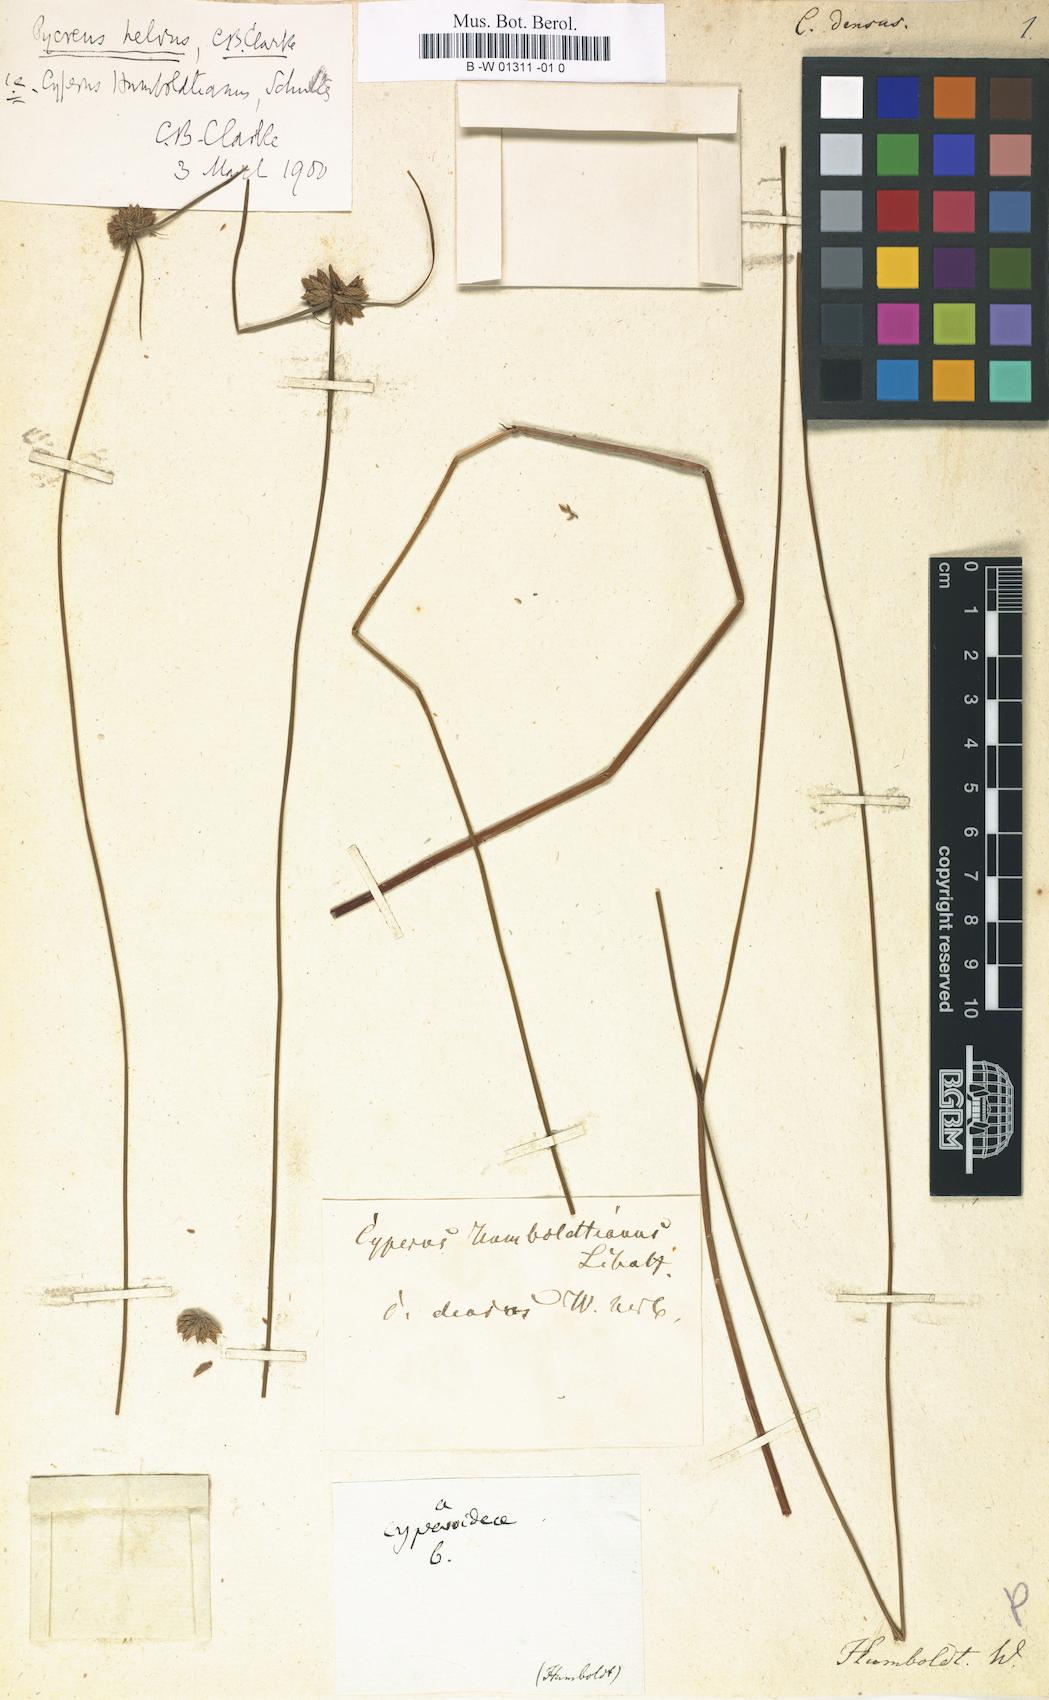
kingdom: Plantae
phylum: Tracheophyta
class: Liliopsida
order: Poales
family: Cyperaceae
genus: Cyperus
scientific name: Cyperus densus
